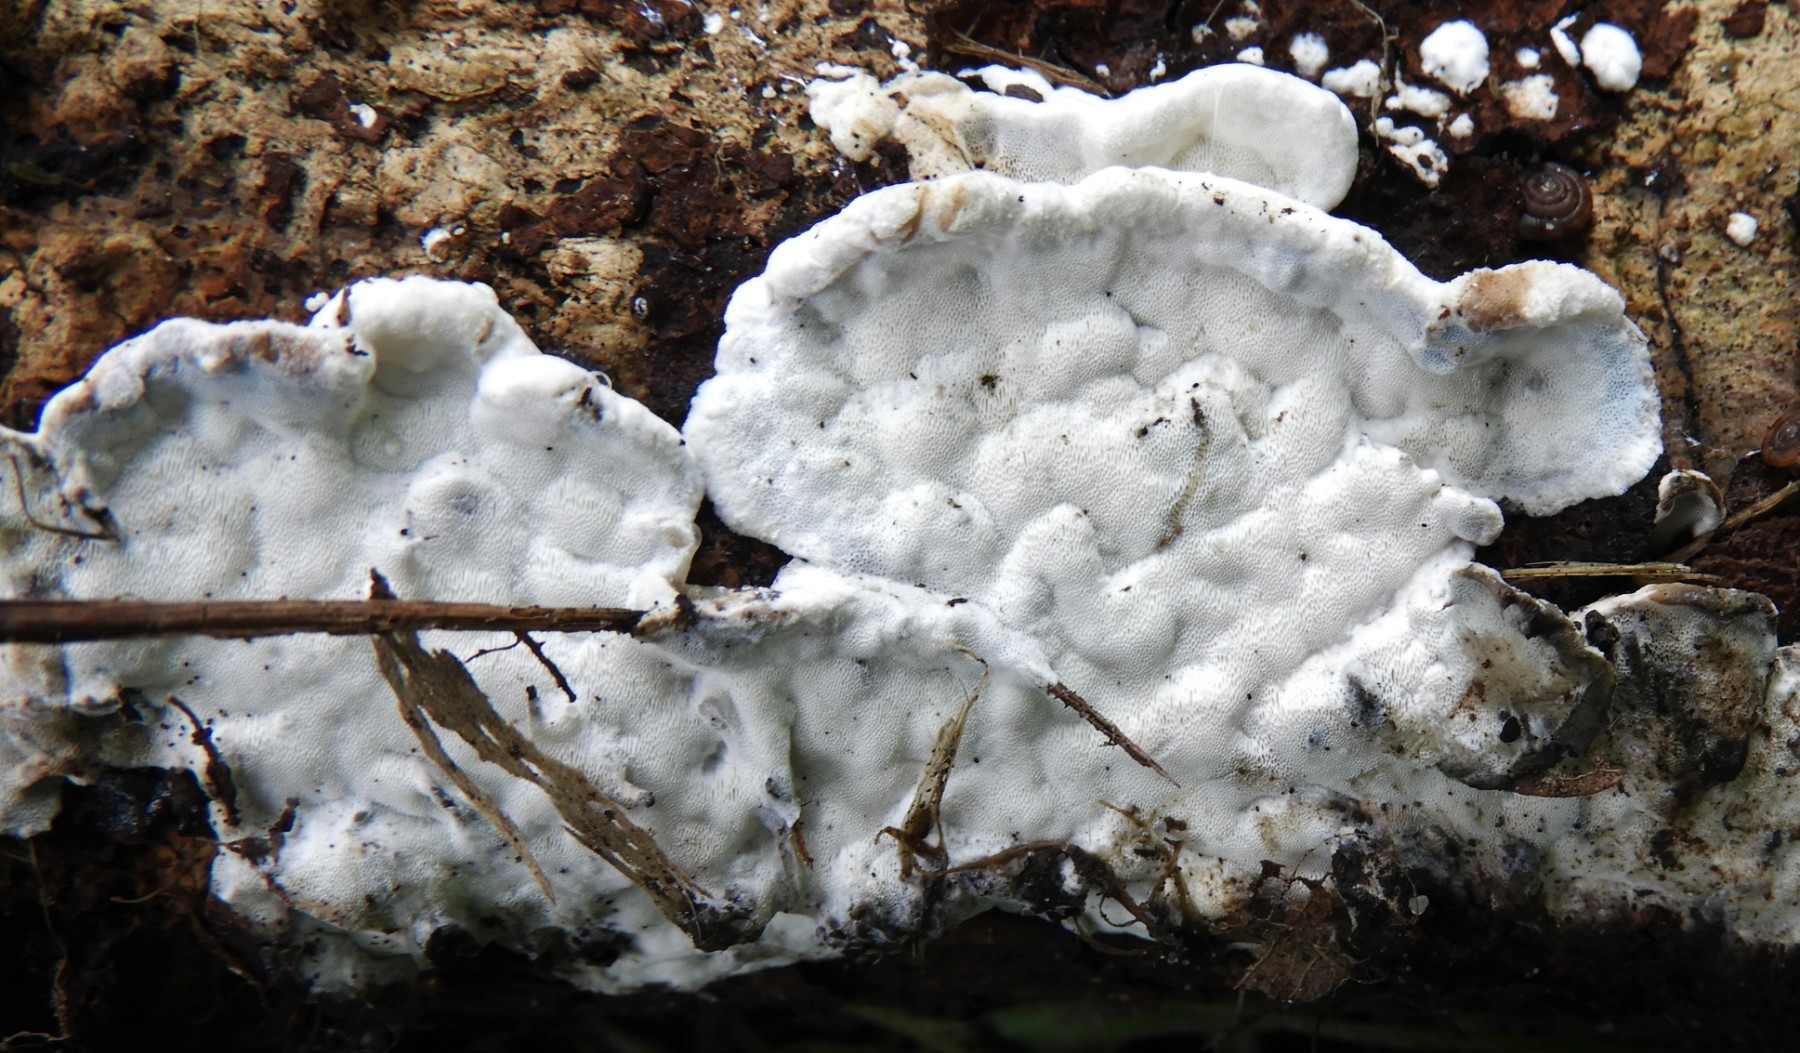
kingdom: Fungi
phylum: Basidiomycota
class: Agaricomycetes
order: Polyporales
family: Incrustoporiaceae
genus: Skeletocutis
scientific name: Skeletocutis nemoralis
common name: stor krystalporesvamp
